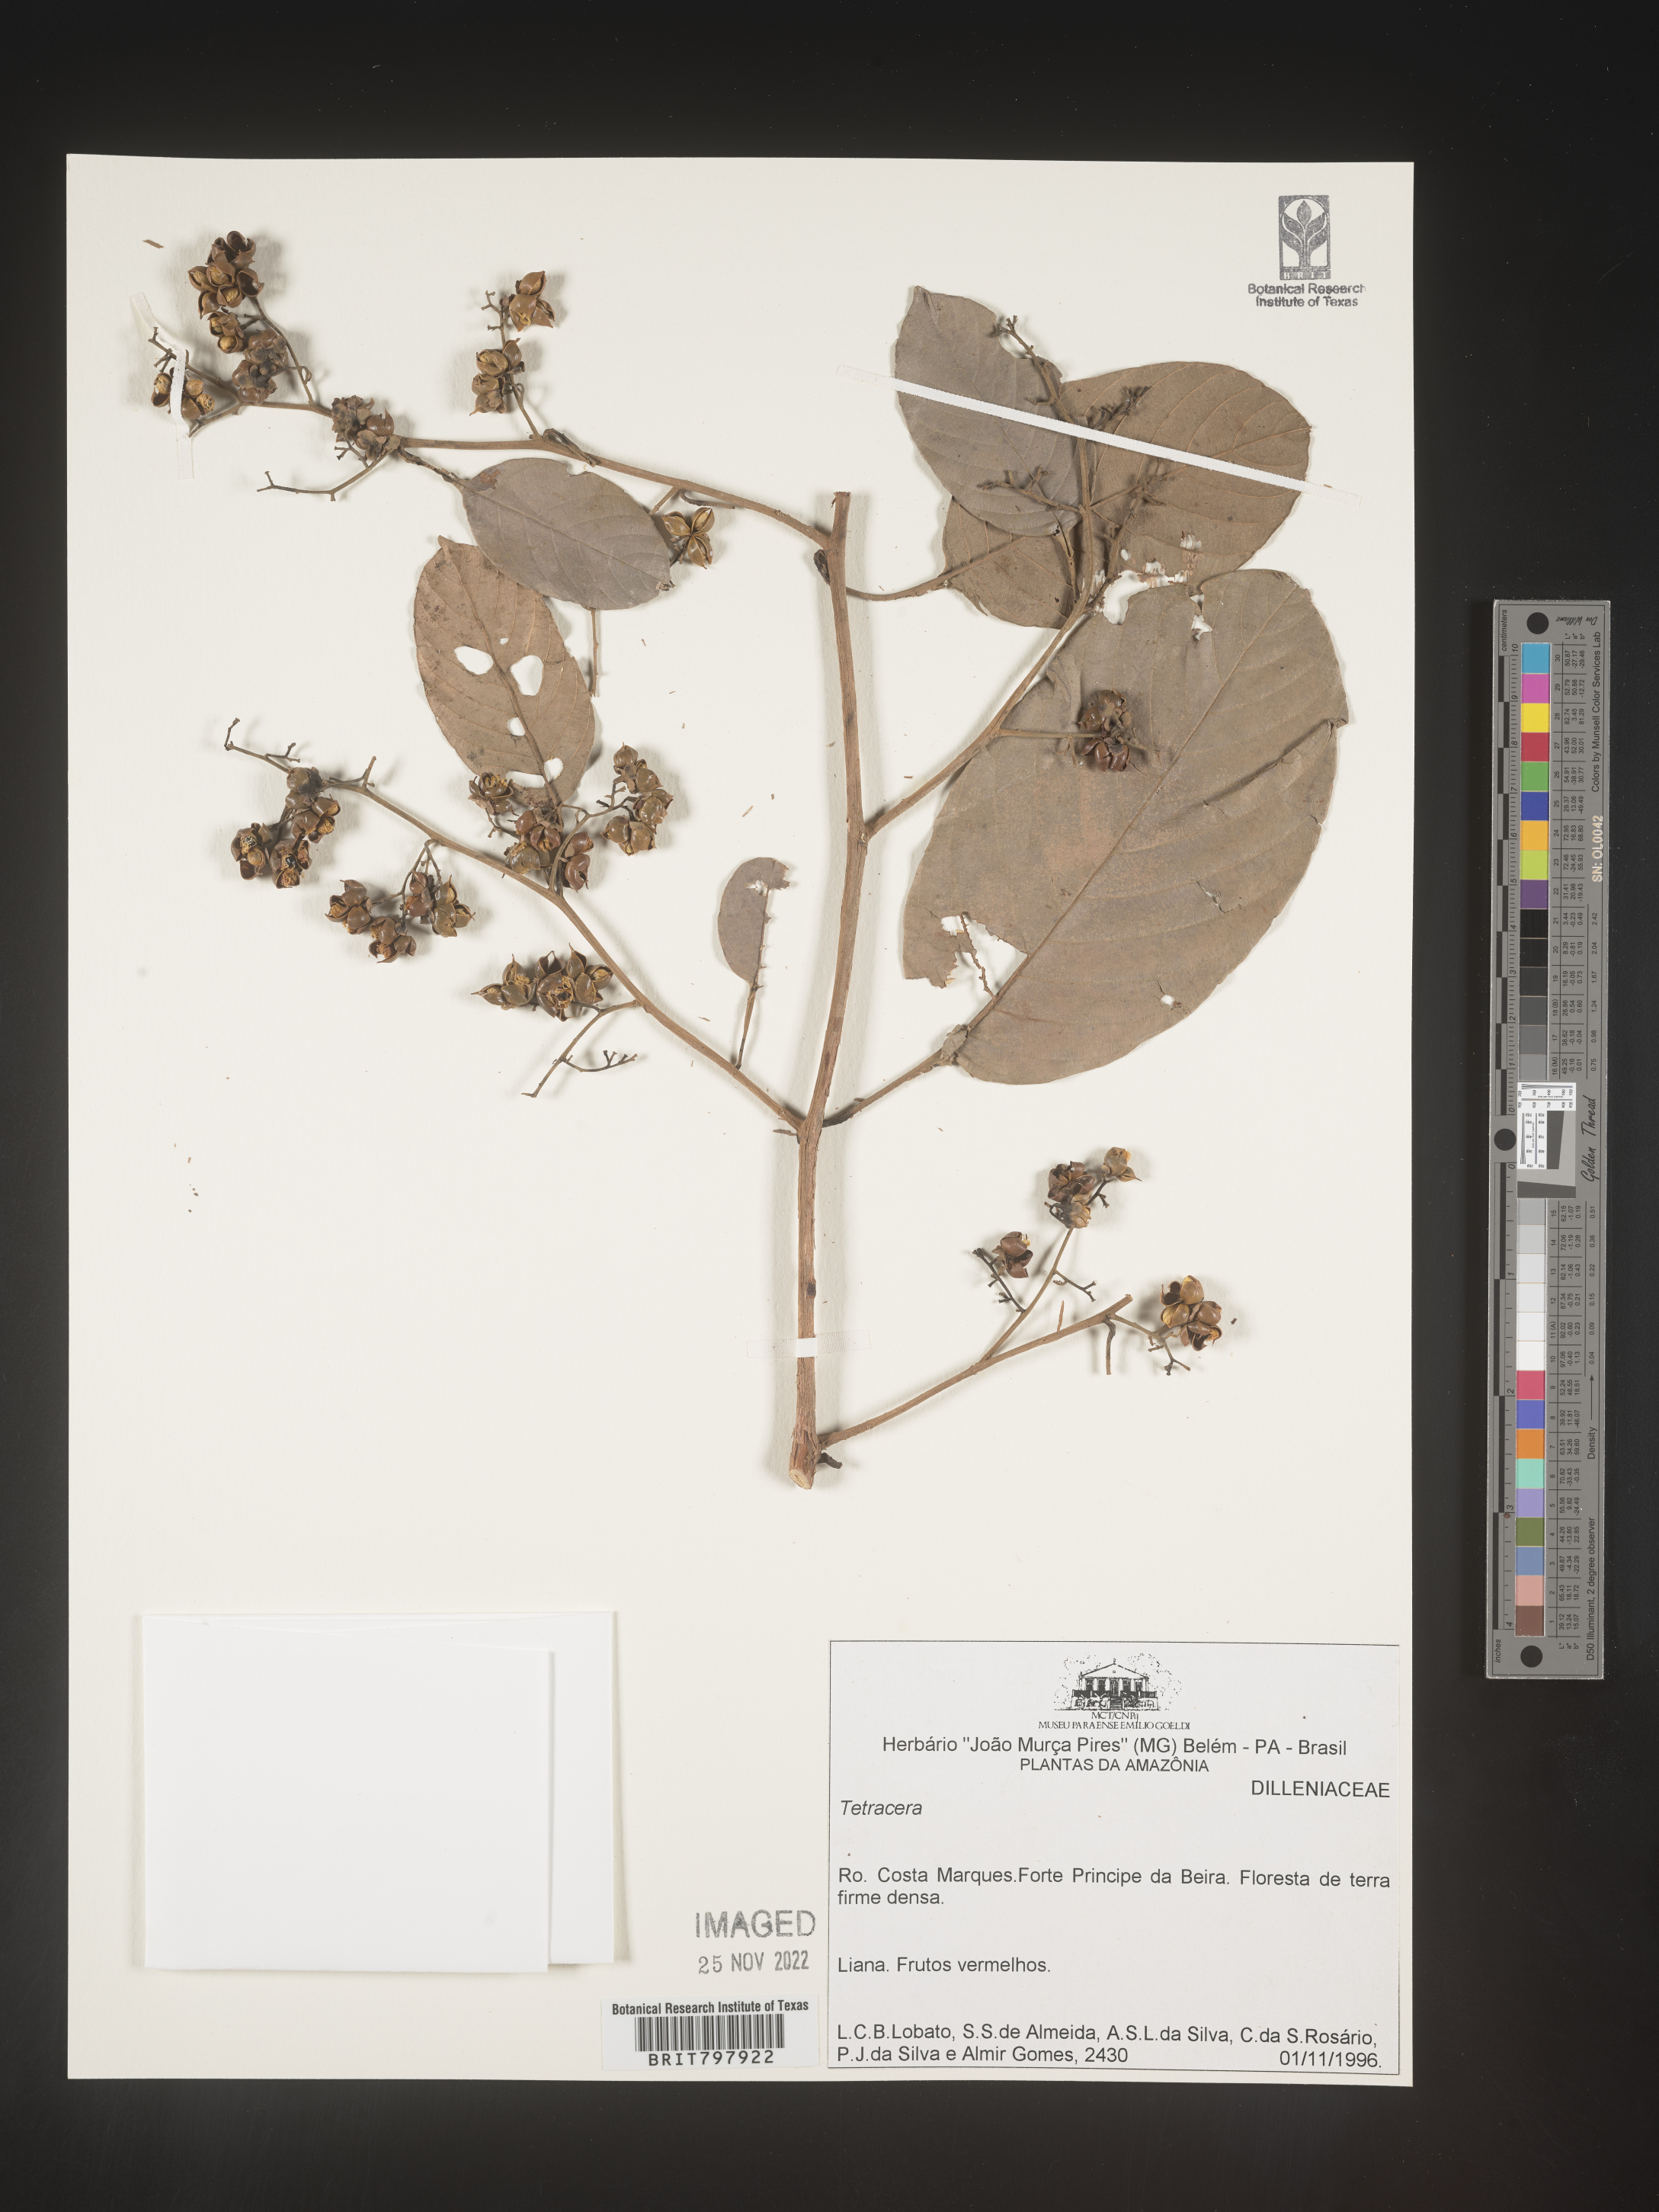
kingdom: Plantae
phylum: Tracheophyta
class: Magnoliopsida
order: Dilleniales
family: Dilleniaceae
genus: Tetracera
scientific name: Tetracera
